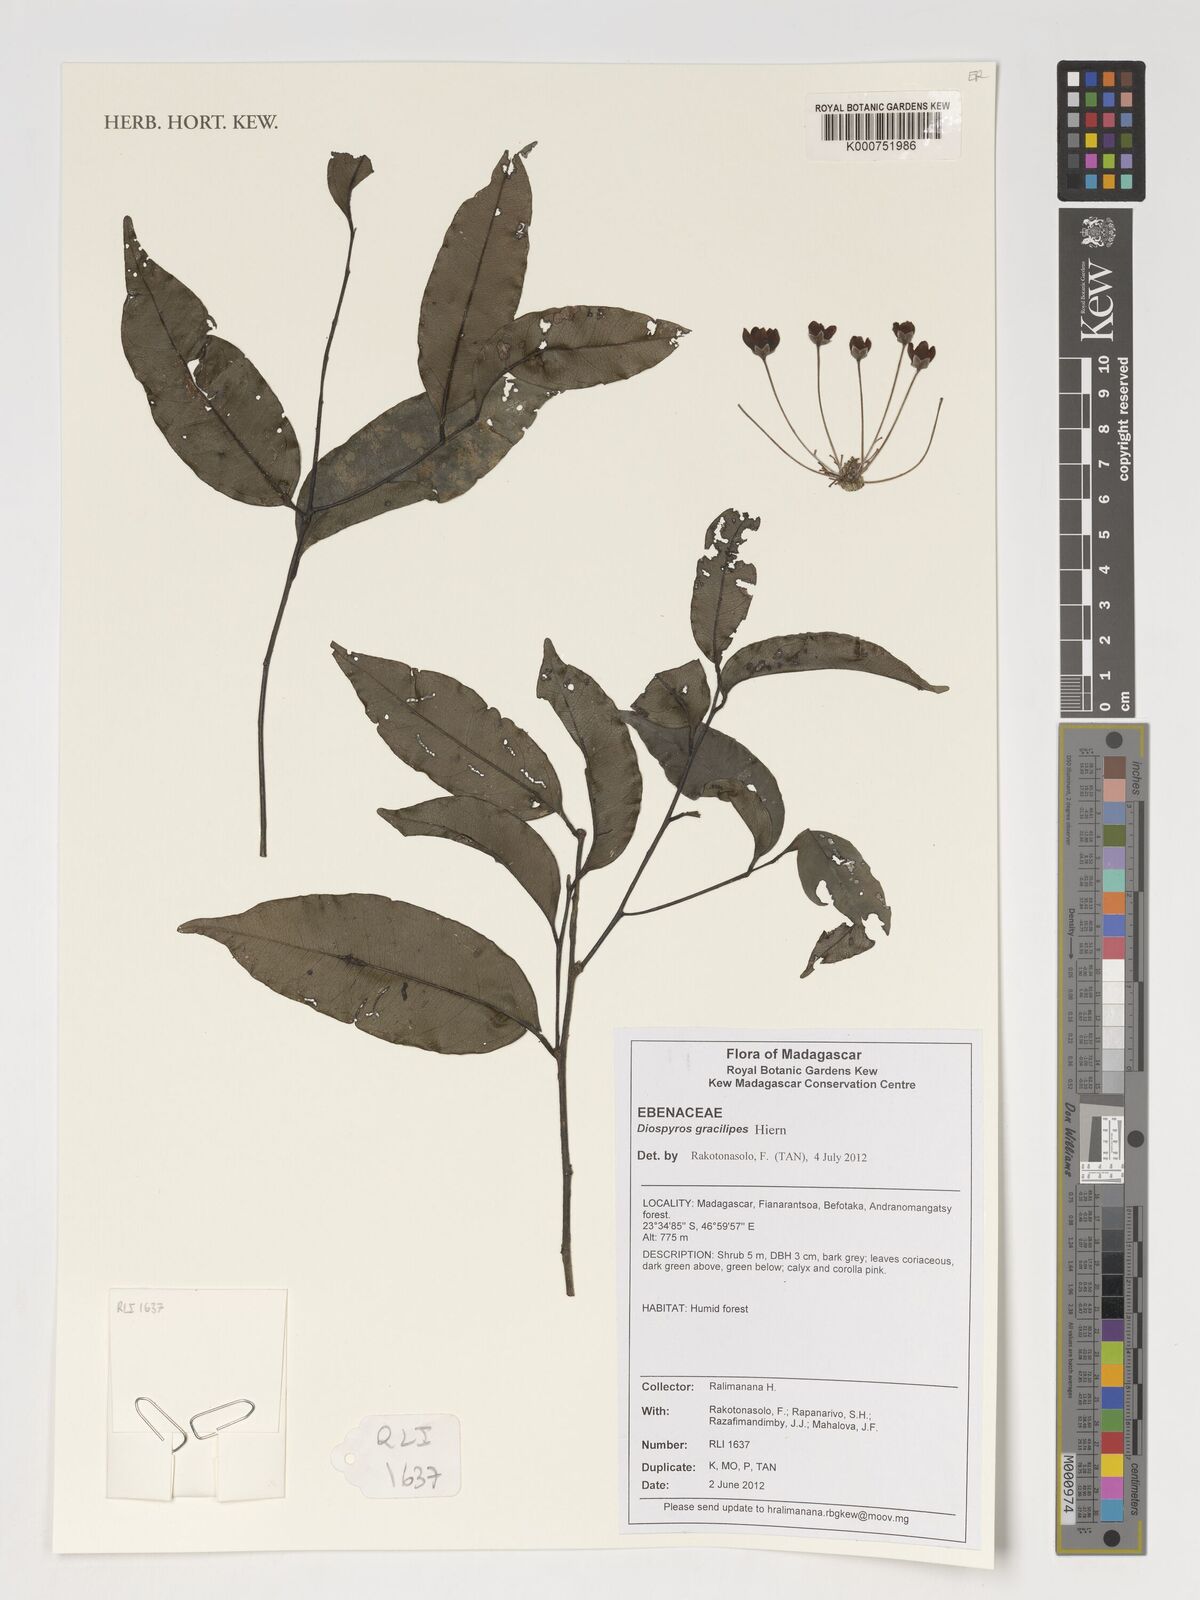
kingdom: Plantae
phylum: Tracheophyta
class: Magnoliopsida
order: Ericales
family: Ebenaceae
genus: Diospyros
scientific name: Diospyros gracilipes
